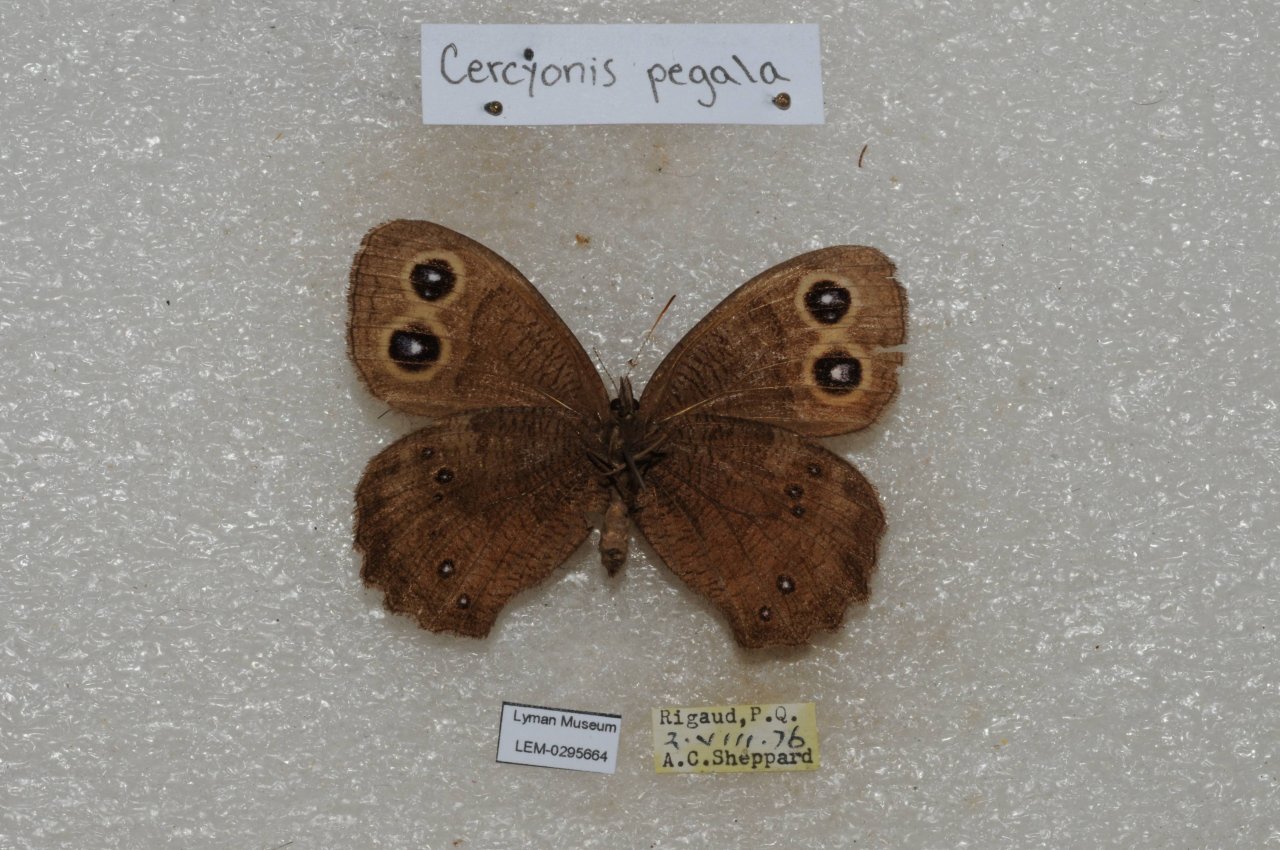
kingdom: Animalia
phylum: Arthropoda
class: Insecta
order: Lepidoptera
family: Nymphalidae
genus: Cercyonis
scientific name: Cercyonis pegala
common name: Common Wood-Nymph
